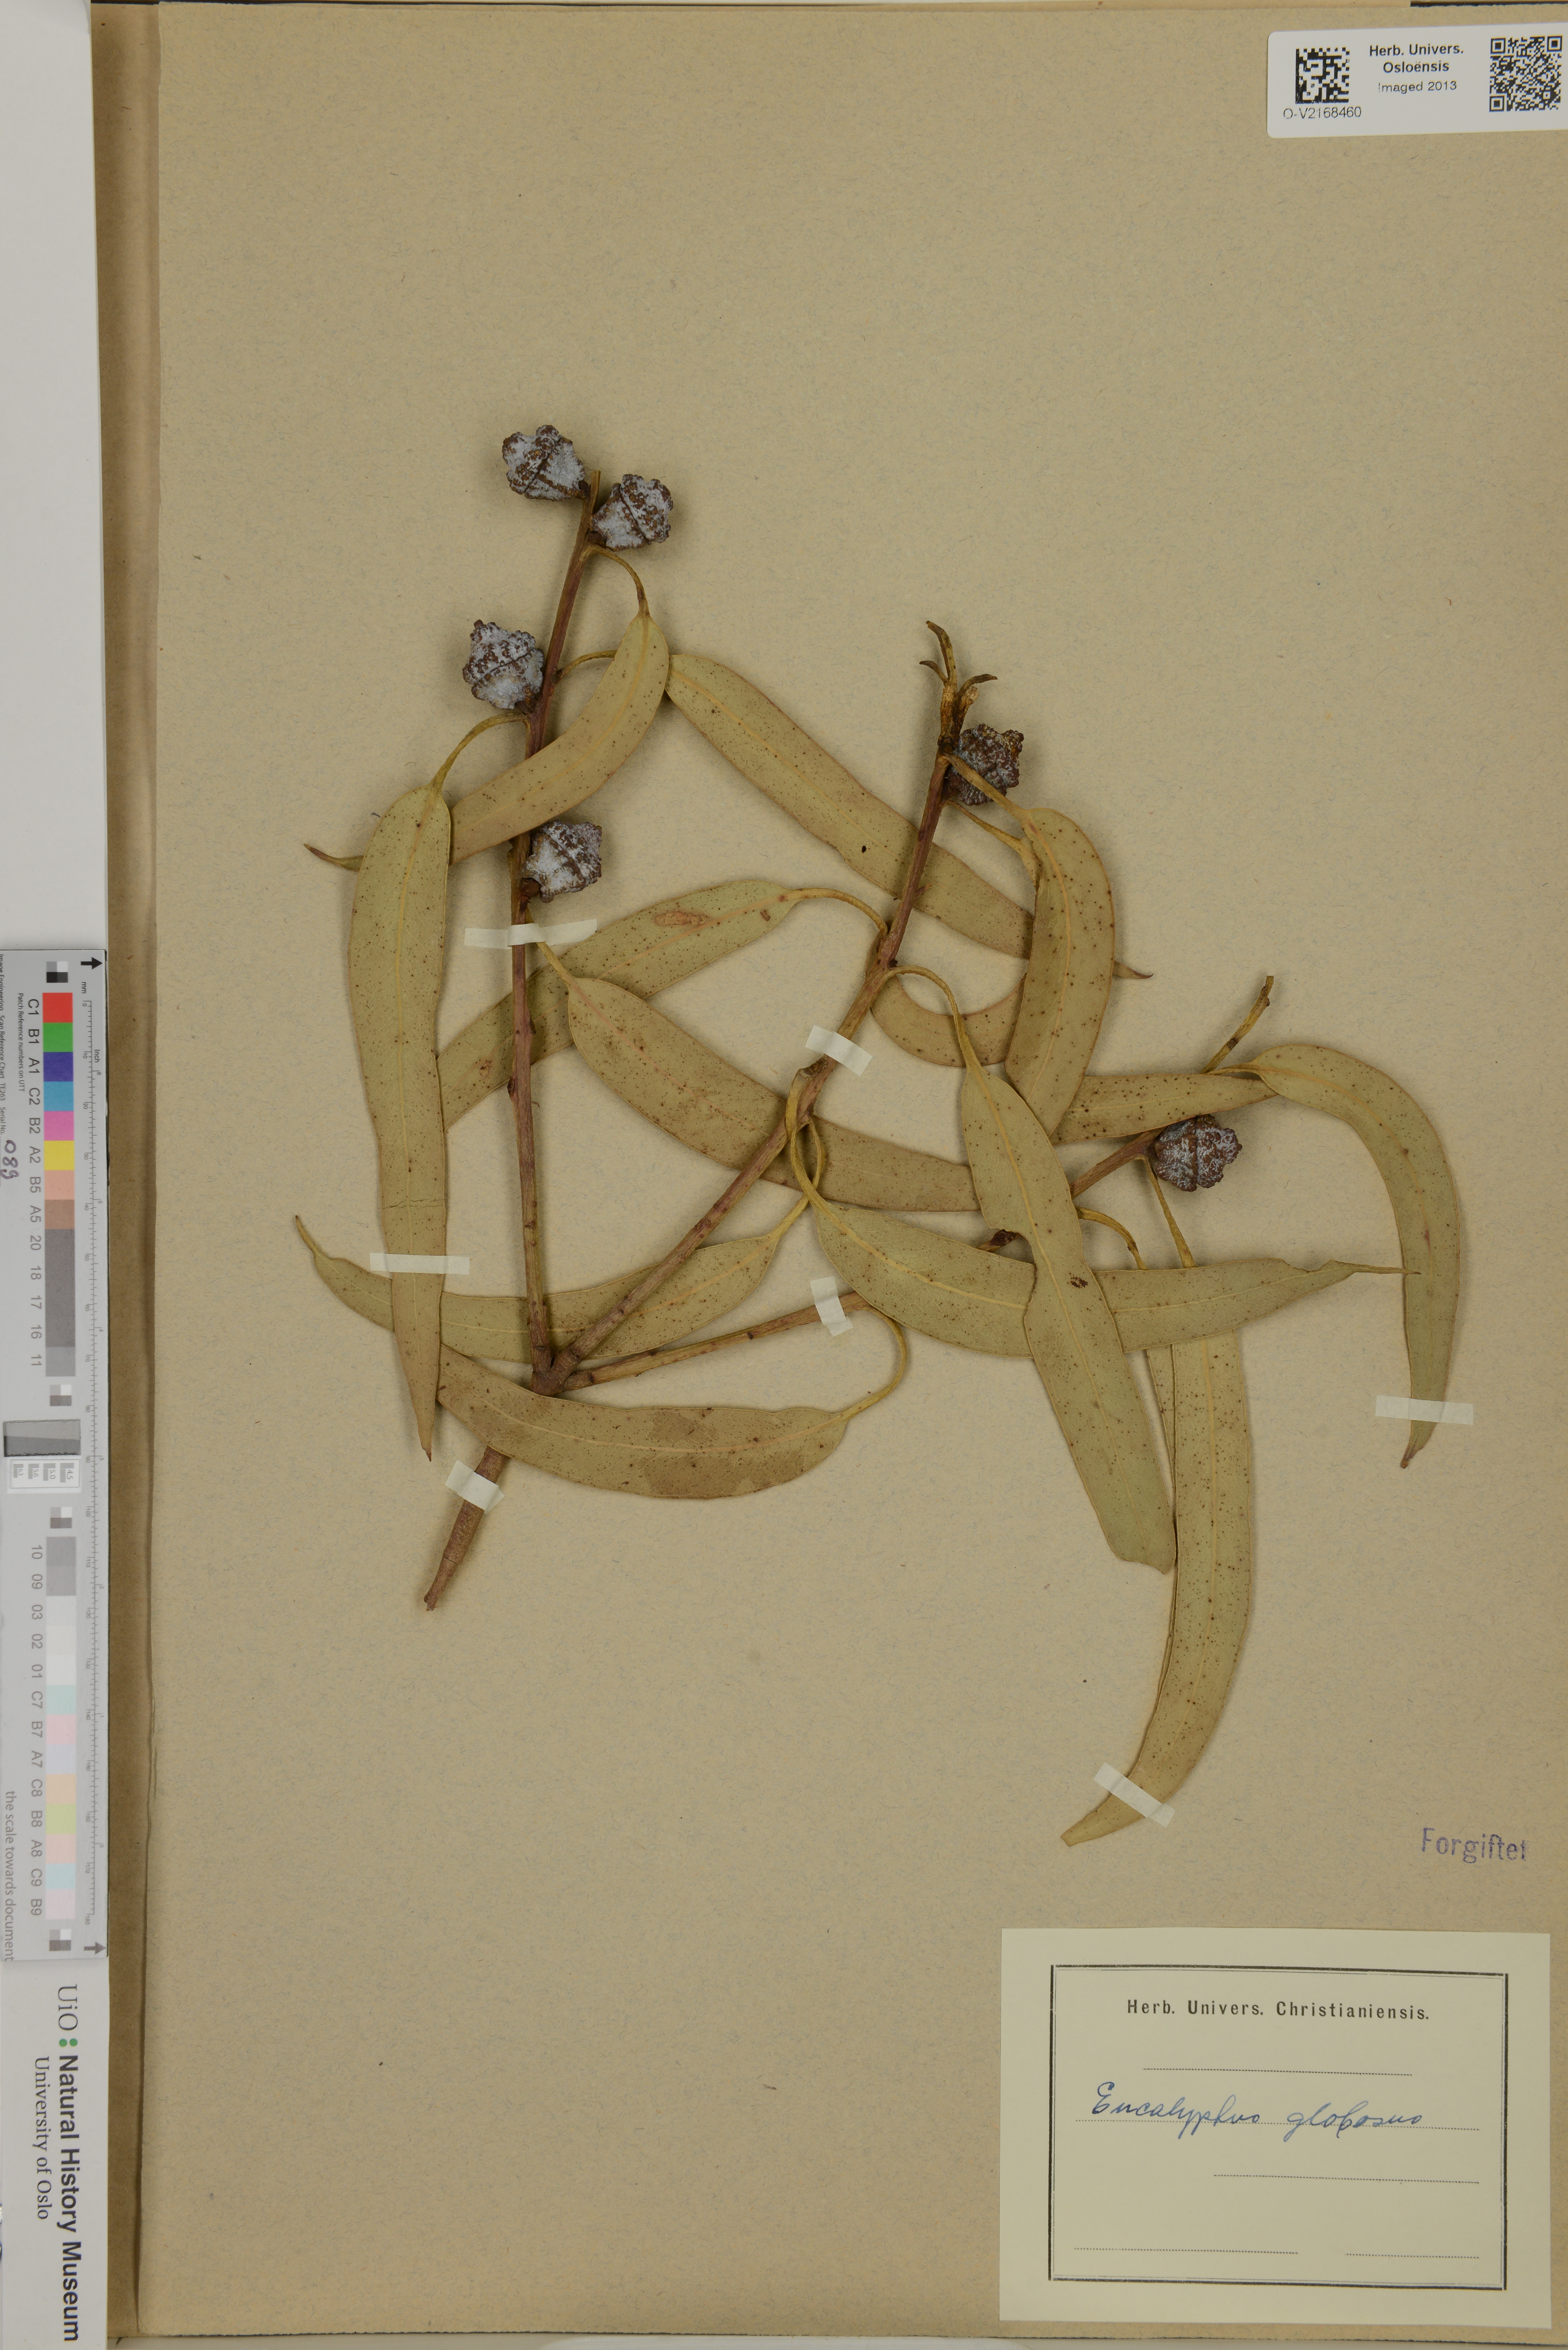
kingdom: Plantae
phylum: Tracheophyta
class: Magnoliopsida
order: Myrtales
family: Myrtaceae
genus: Eucalyptus
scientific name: Eucalyptus globulus
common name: Southern blue-gum
